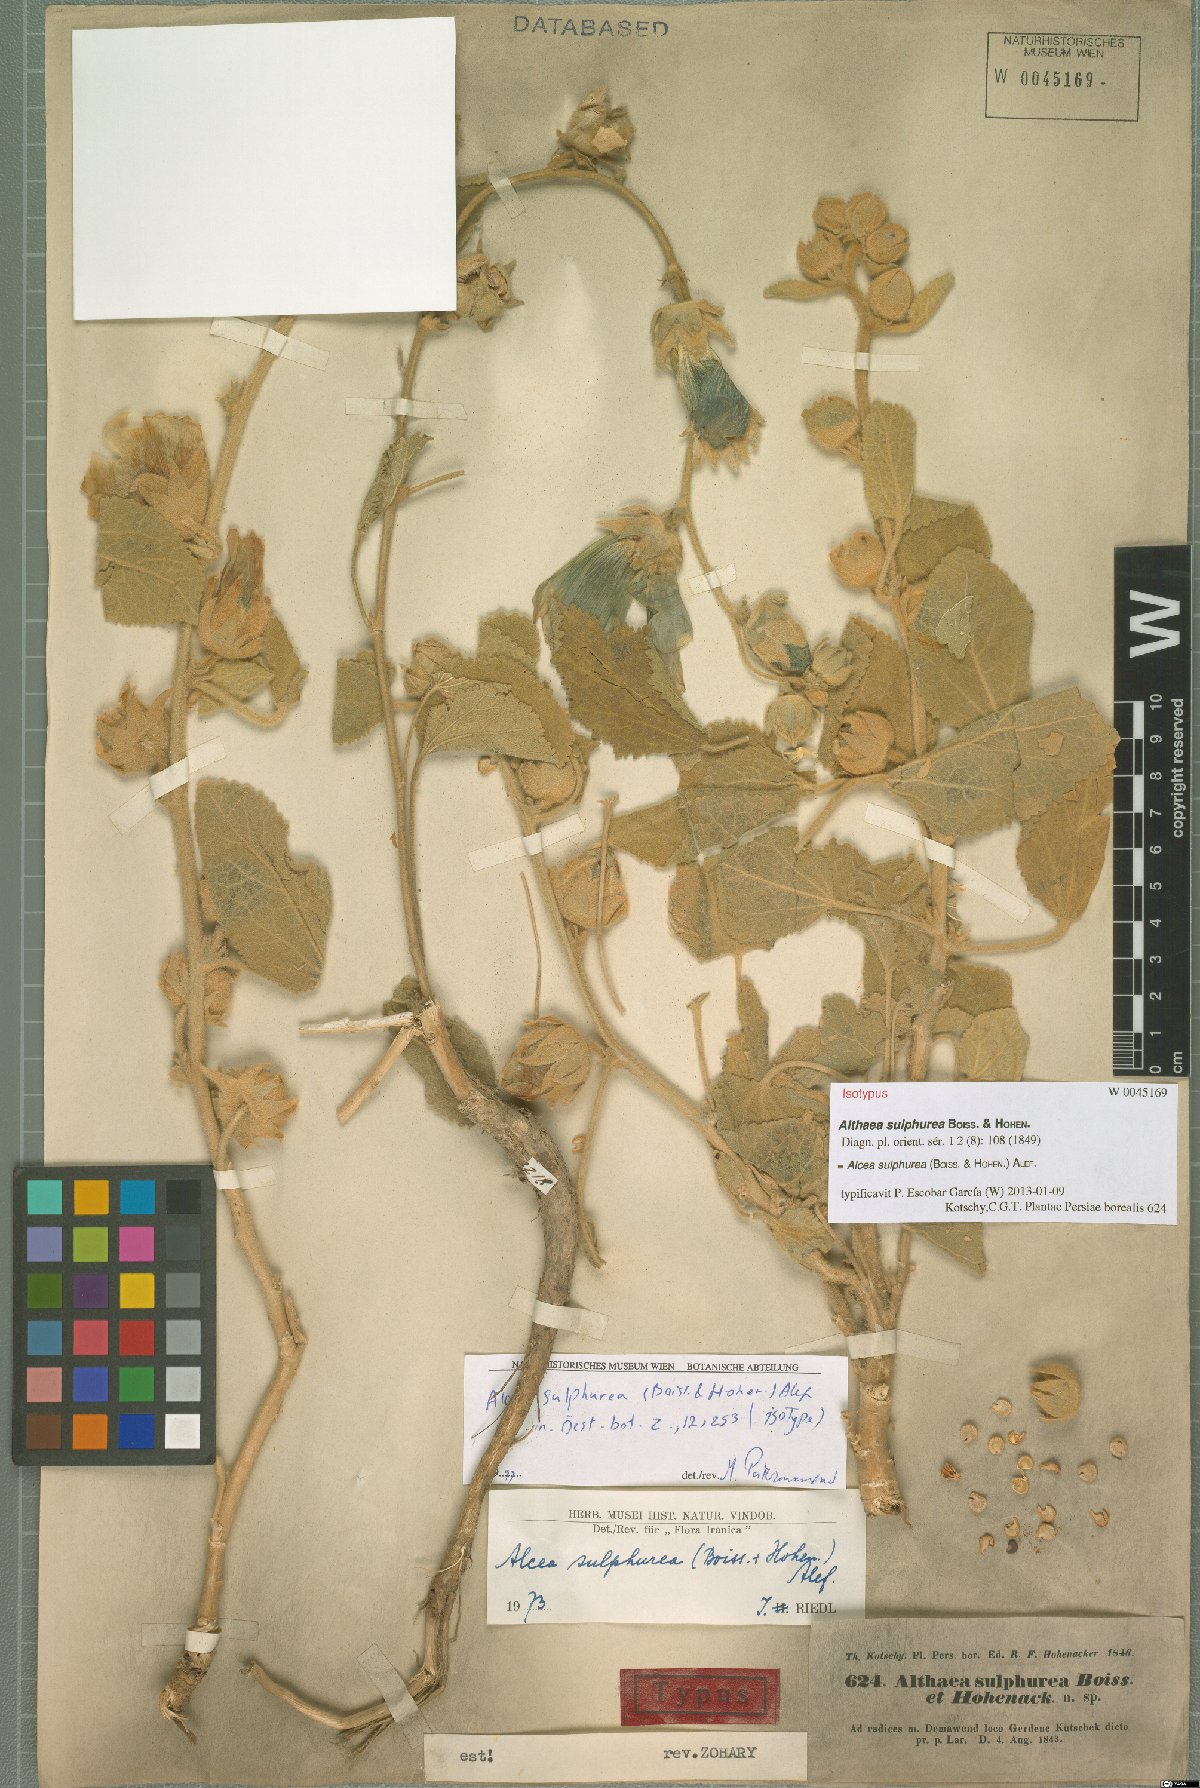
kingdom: Plantae
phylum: Tracheophyta
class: Magnoliopsida
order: Malvales
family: Malvaceae
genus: Alcea
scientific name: Alcea sulphurea
